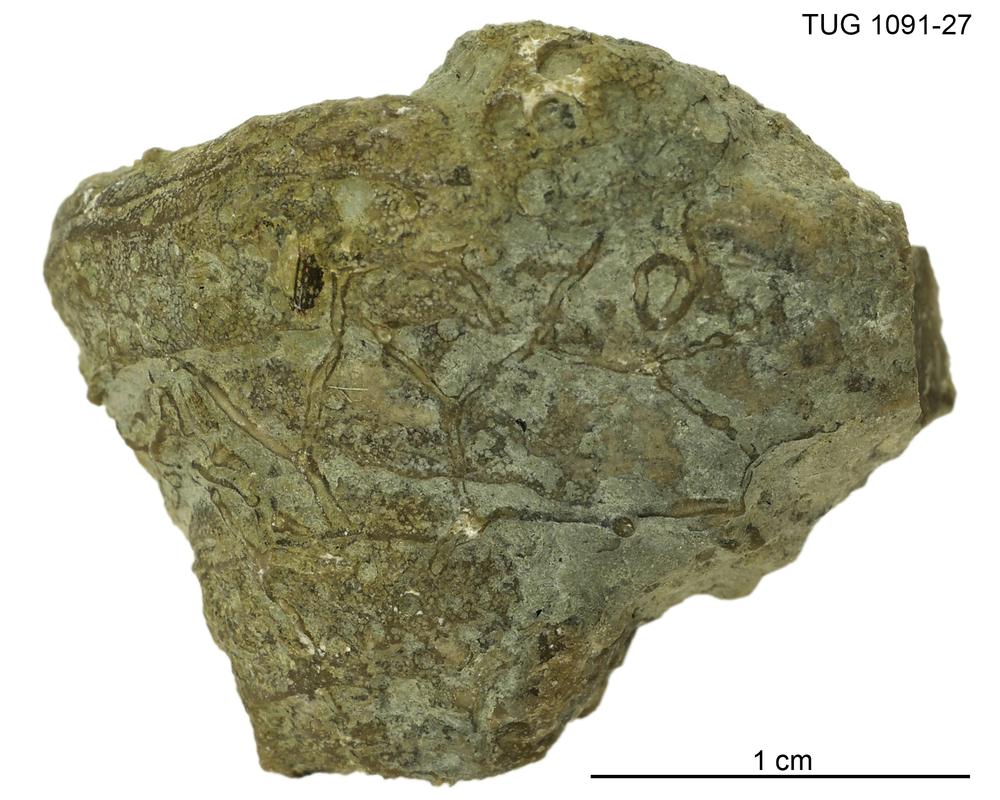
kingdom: Animalia
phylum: Cnidaria
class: Anthozoa
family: Auloporidae
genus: Aulopora
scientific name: Aulopora
